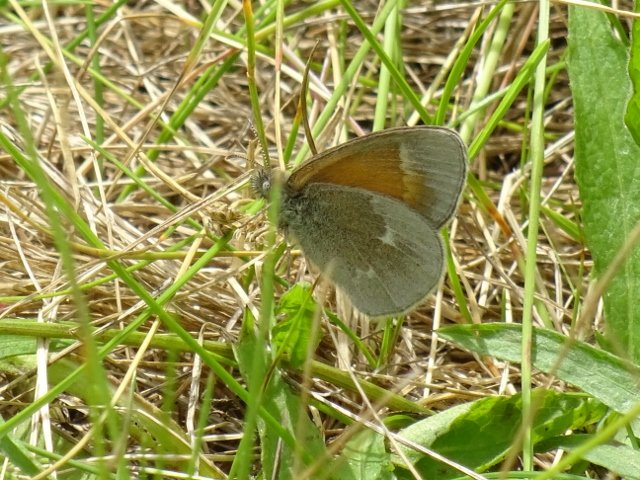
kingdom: Animalia
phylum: Arthropoda
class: Insecta
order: Lepidoptera
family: Nymphalidae
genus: Coenonympha
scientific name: Coenonympha tullia
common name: Large Heath
